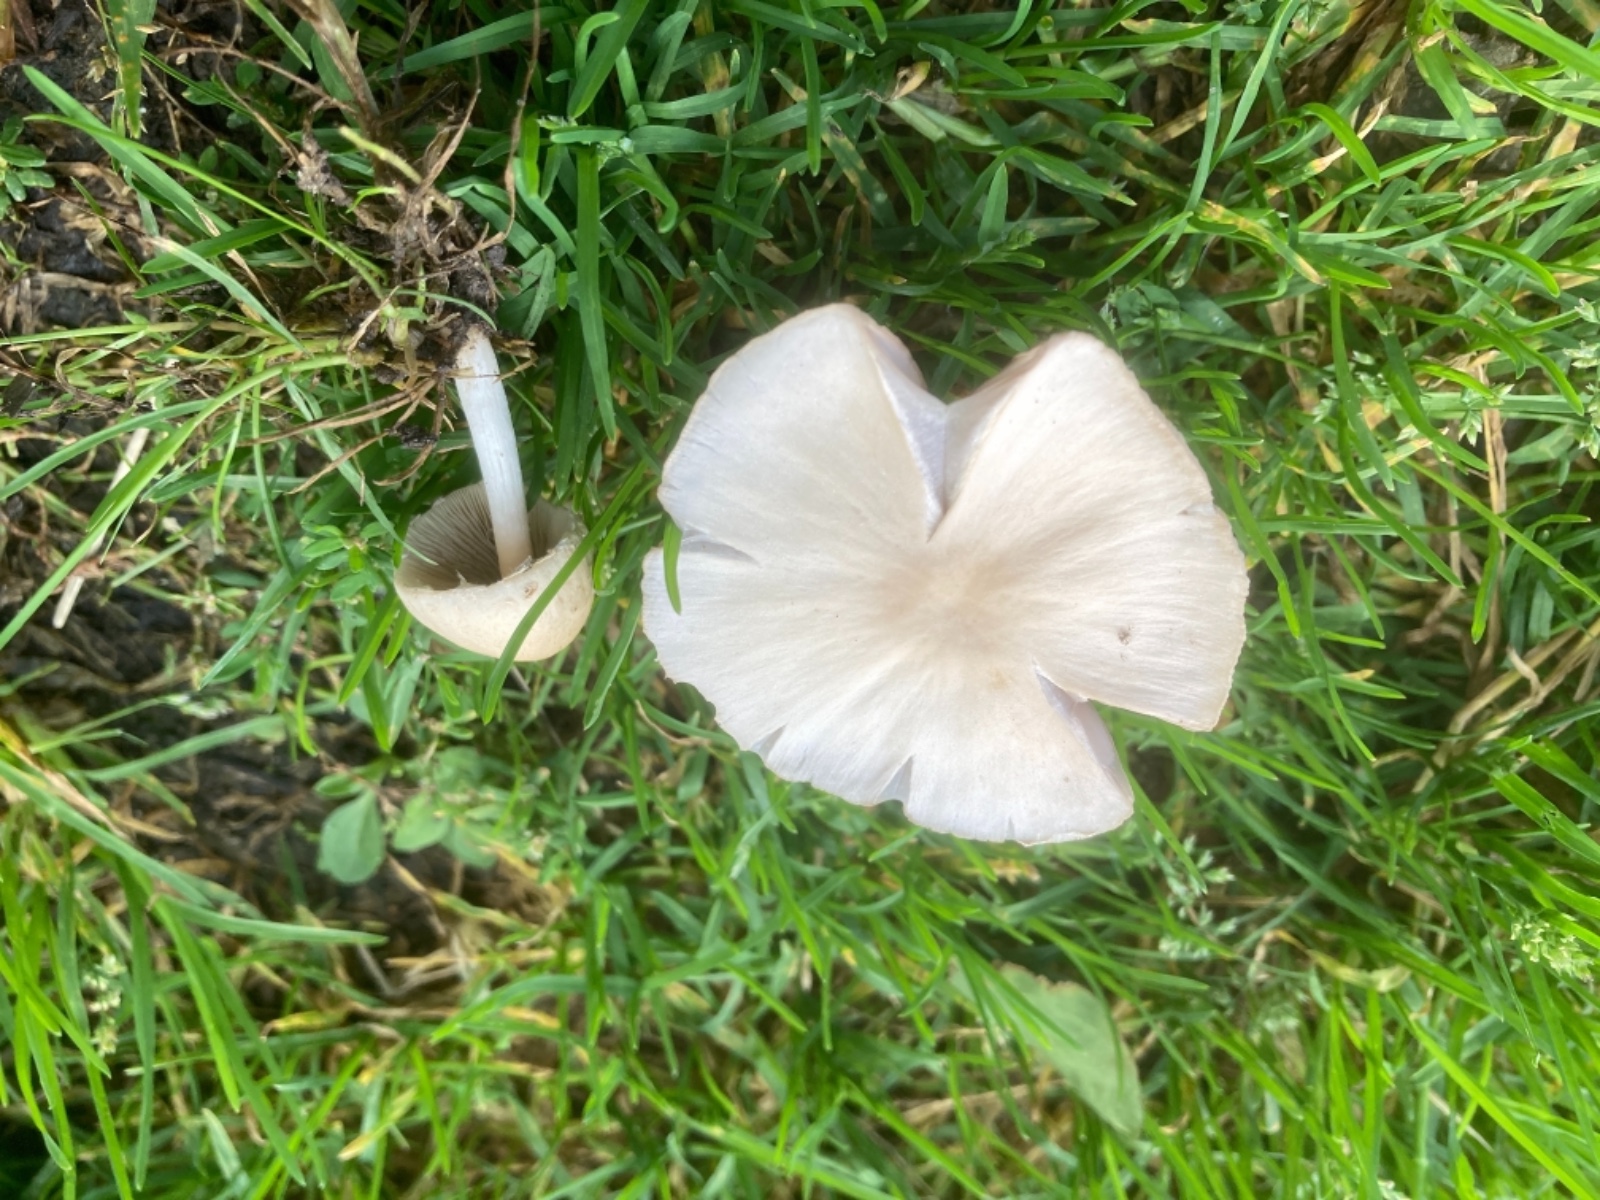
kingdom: Fungi
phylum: Basidiomycota
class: Agaricomycetes
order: Agaricales
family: Psathyrellaceae
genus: Candolleomyces
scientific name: Candolleomyces candolleanus
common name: Candolles mørkhat
